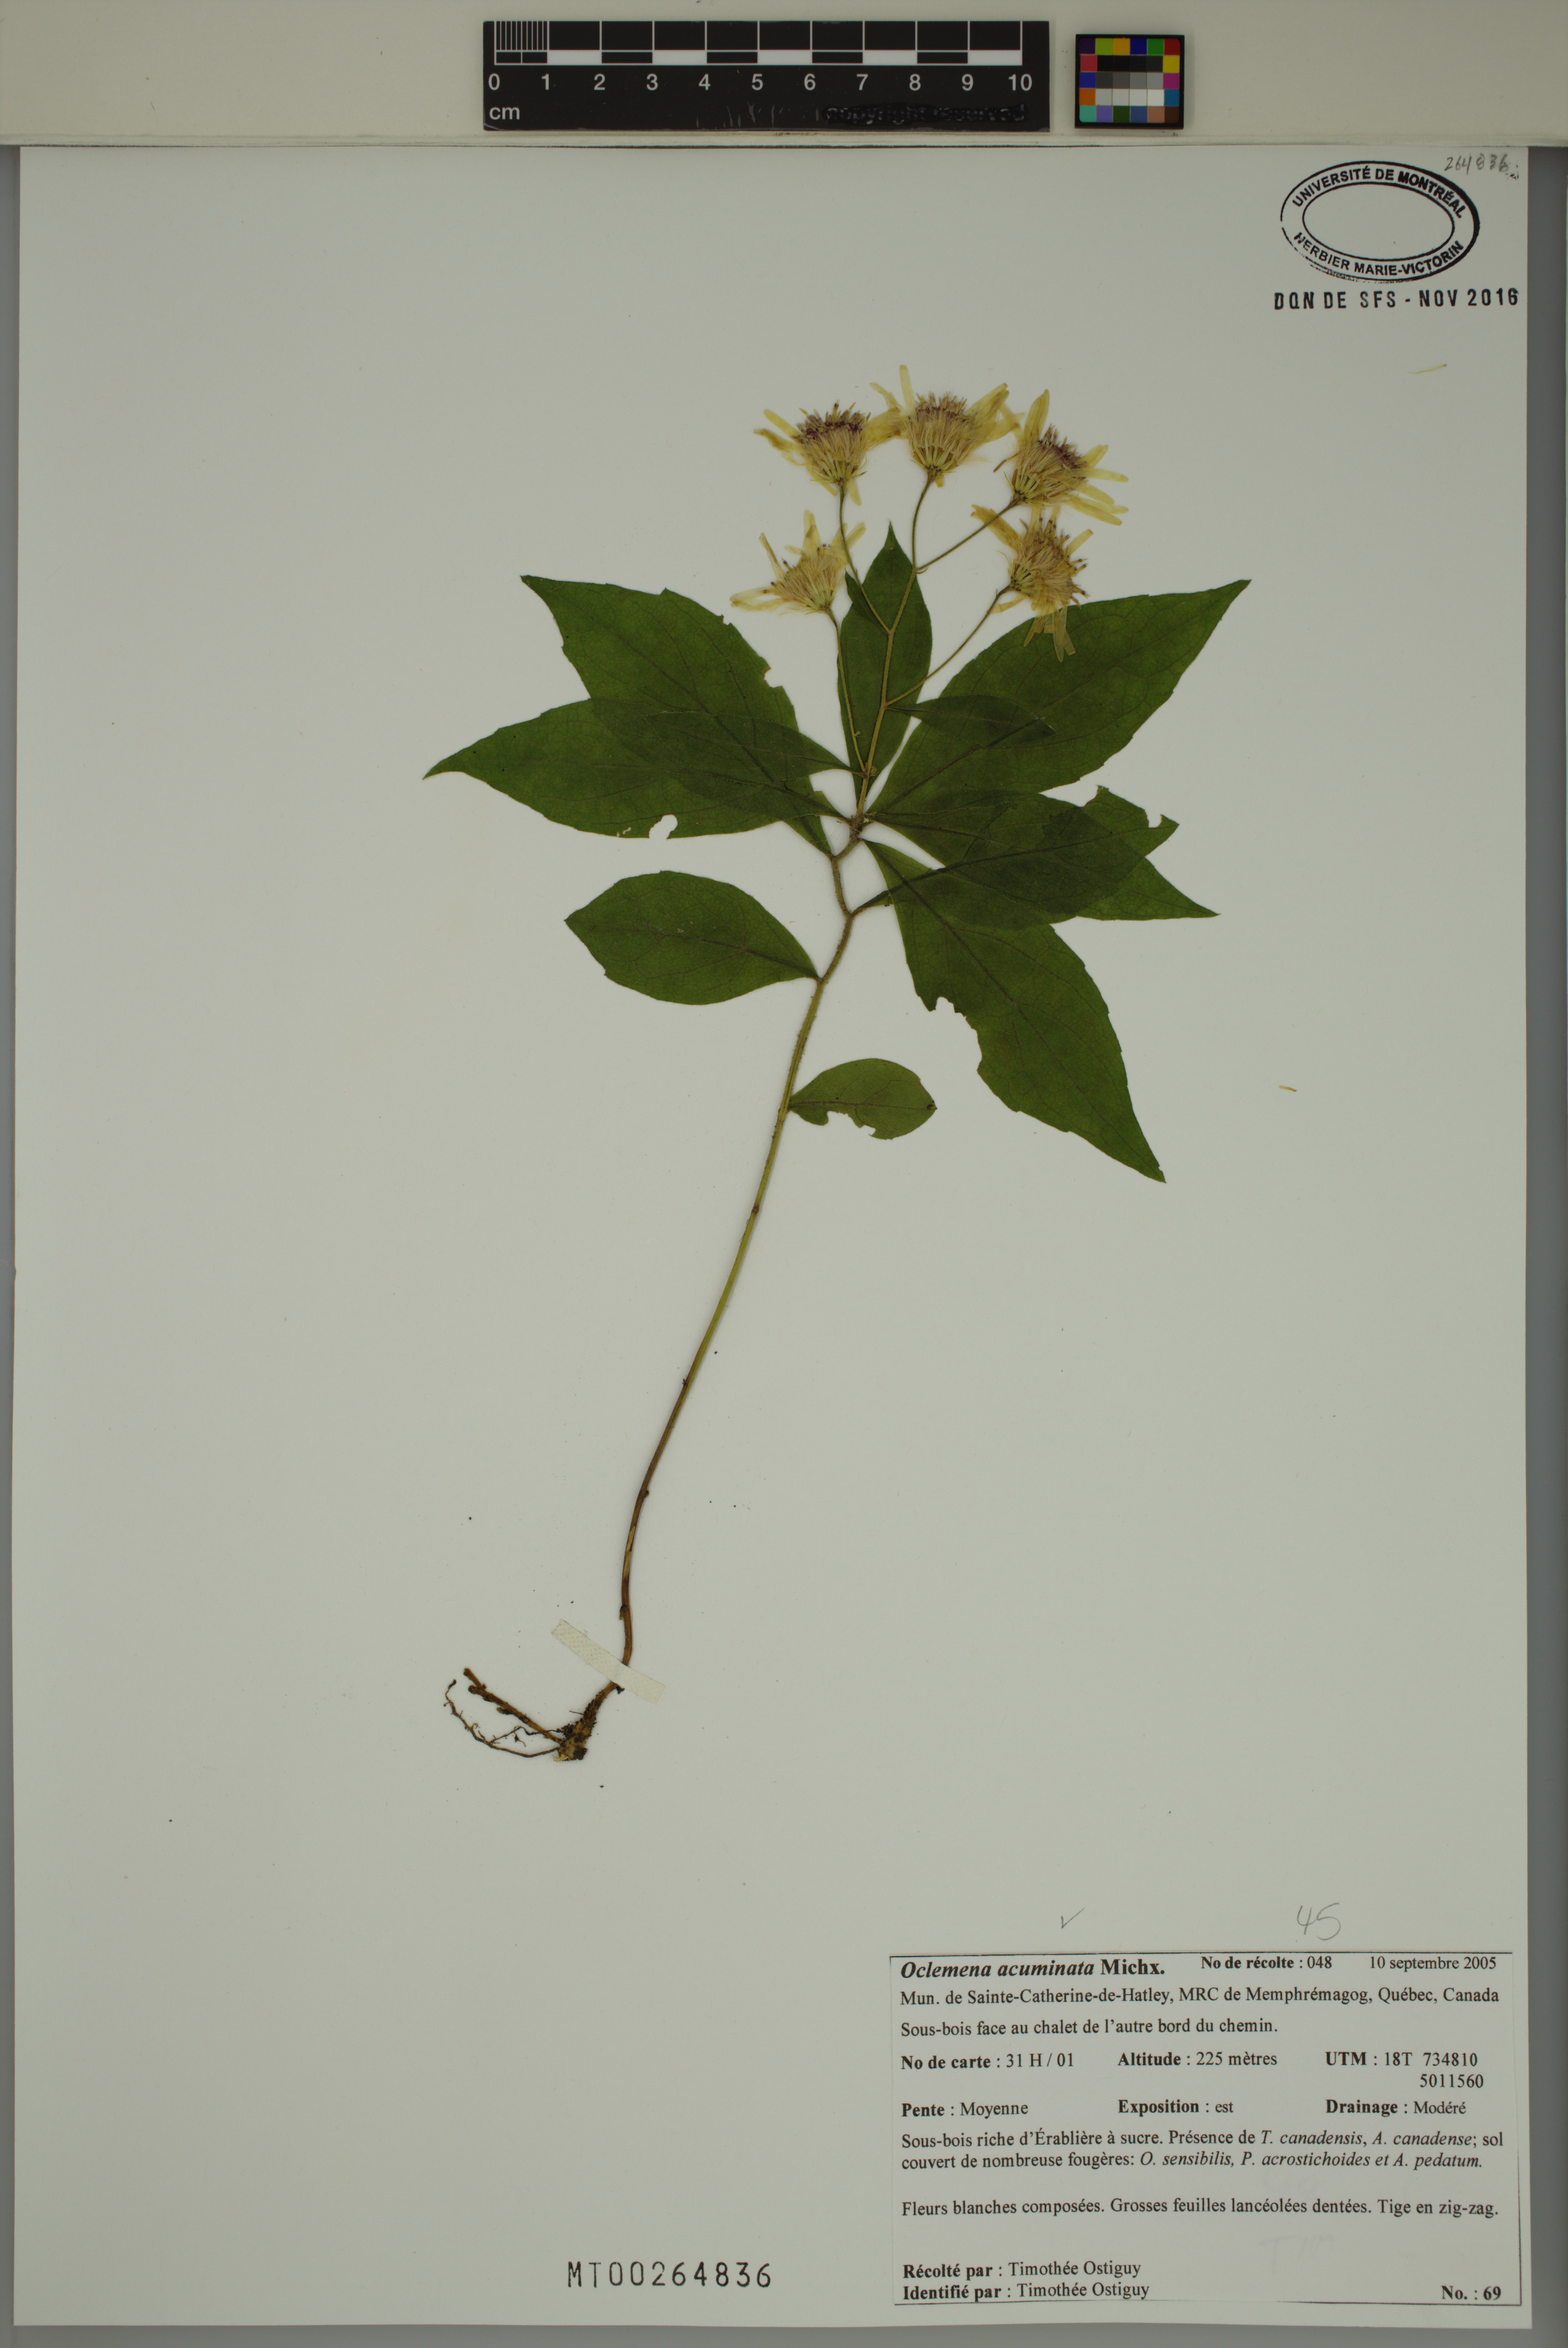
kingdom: Plantae
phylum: Tracheophyta
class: Magnoliopsida
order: Asterales
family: Asteraceae
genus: Oclemena
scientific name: Oclemena acuminata
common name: Mountain aster
